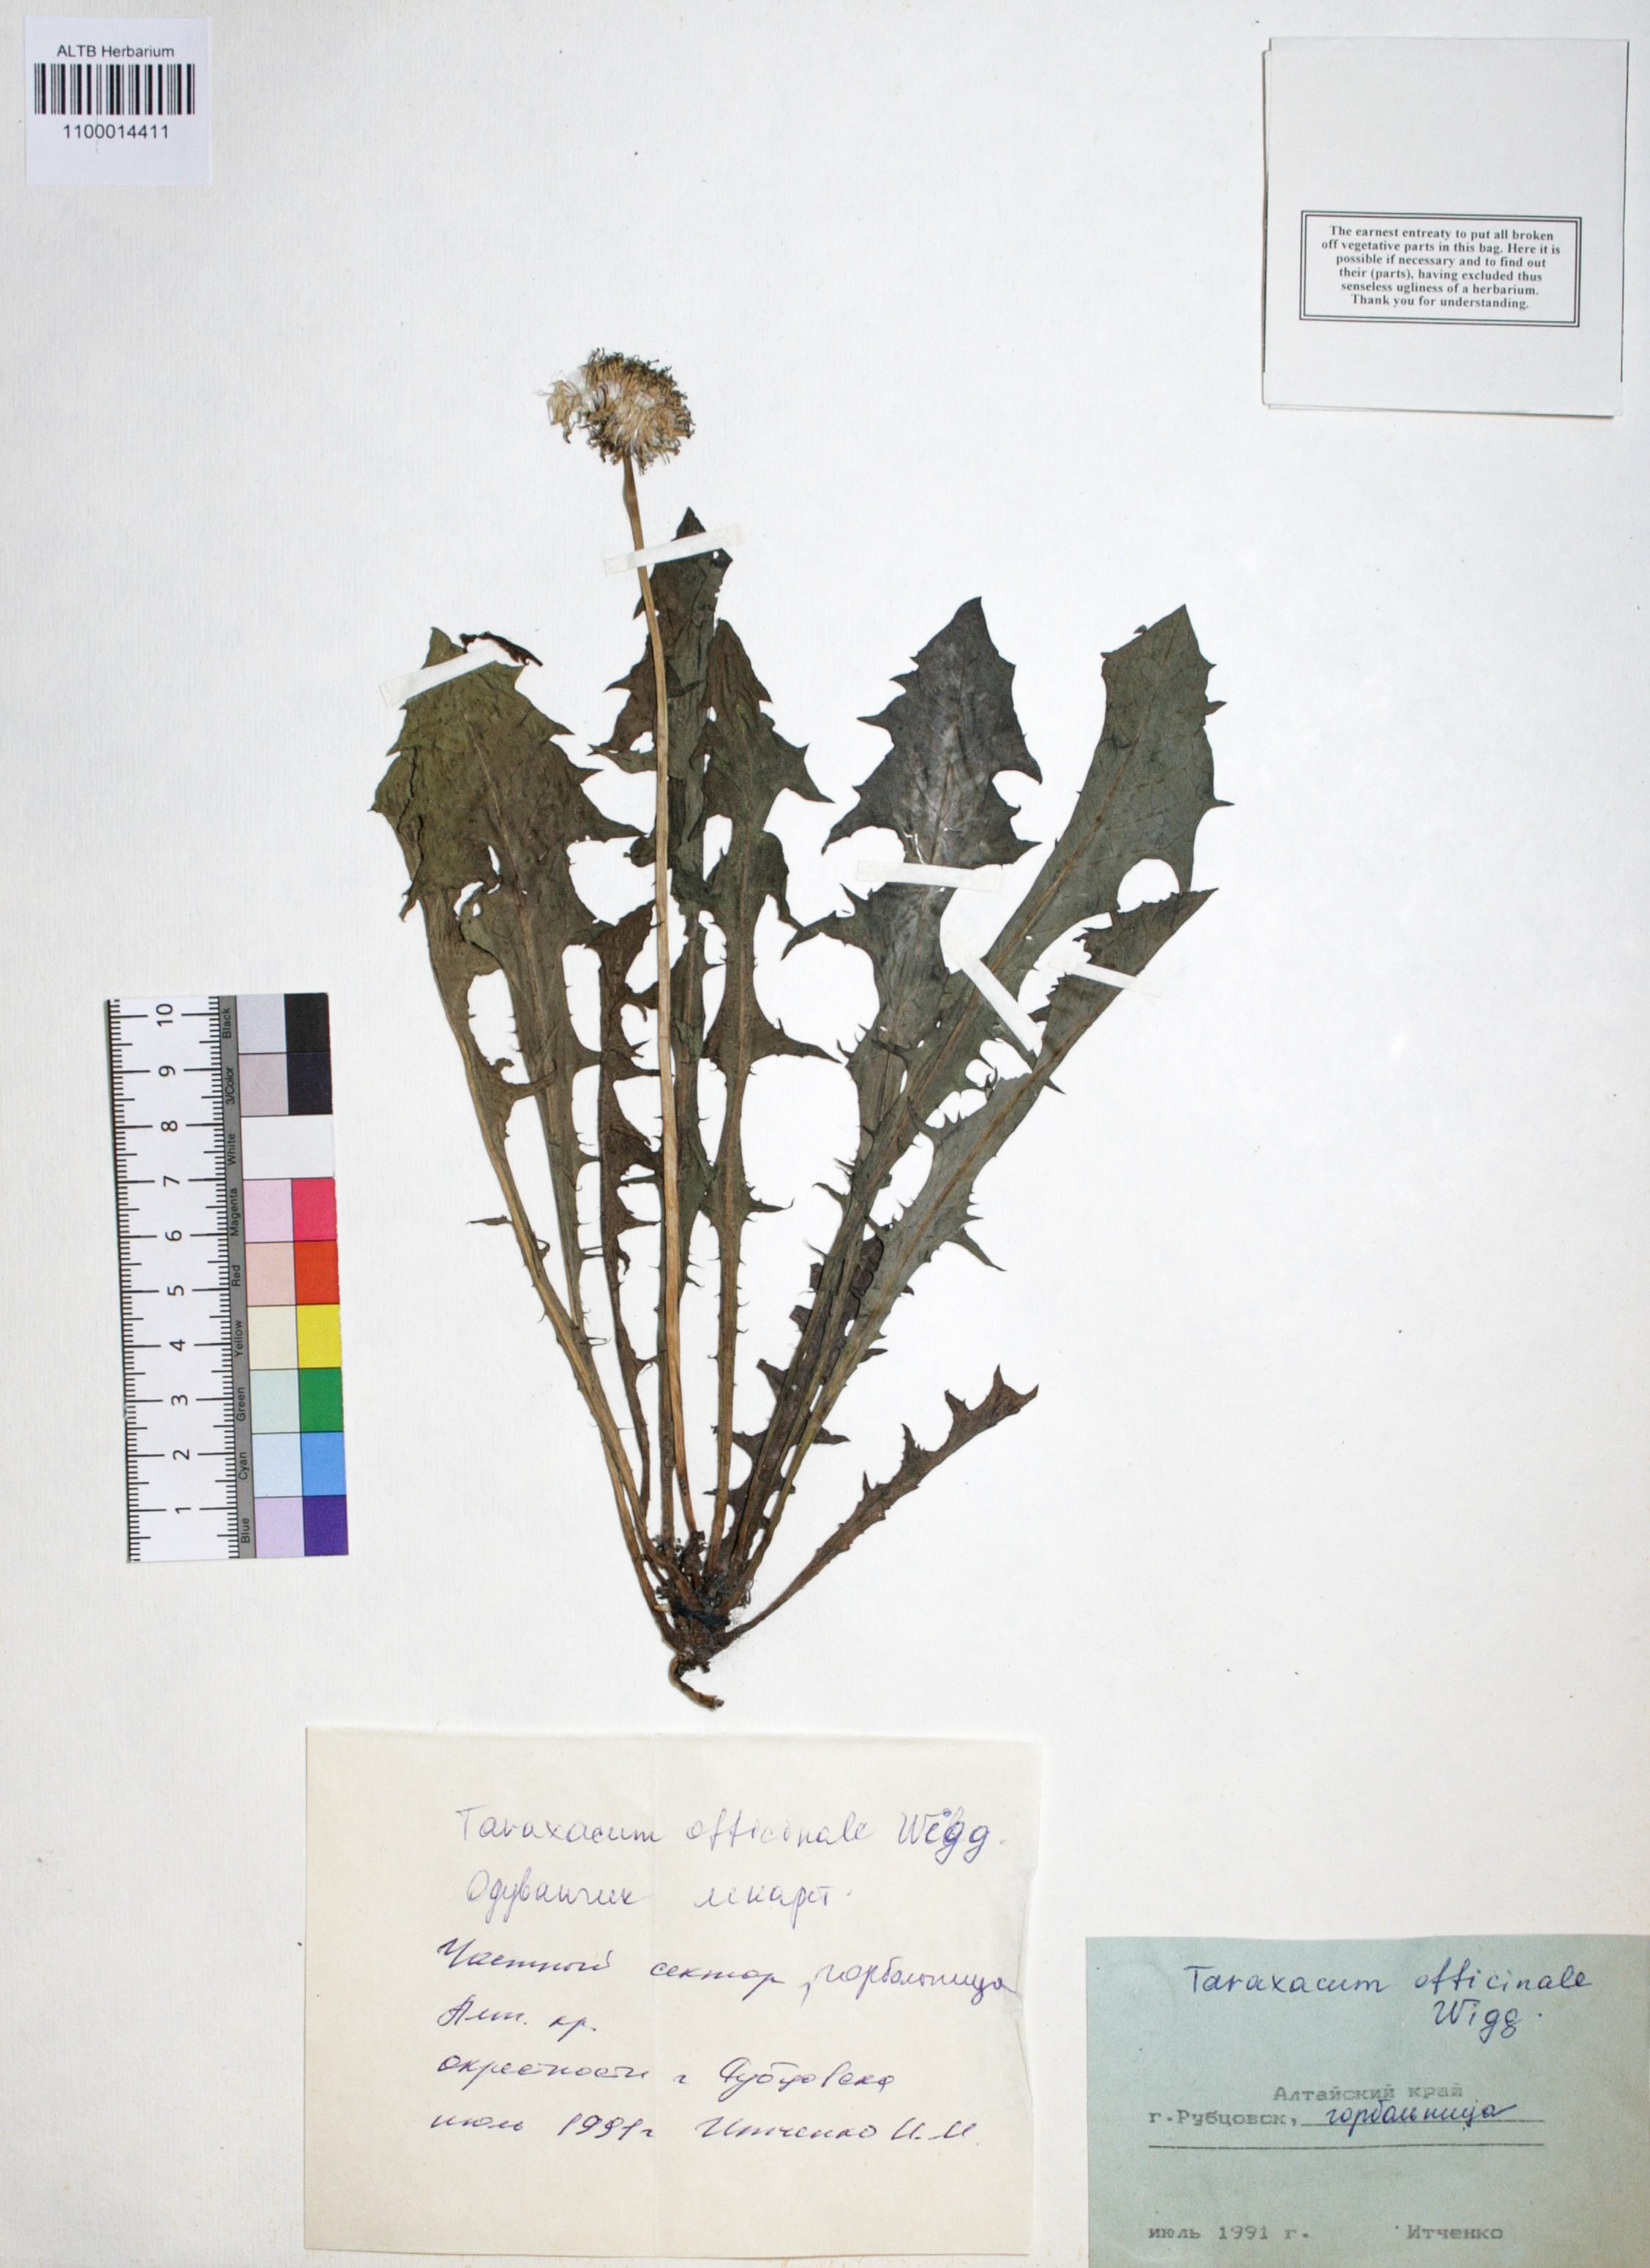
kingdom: Plantae
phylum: Tracheophyta
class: Magnoliopsida
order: Asterales
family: Asteraceae
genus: Taraxacum
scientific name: Taraxacum officinale
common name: Common dandelion
